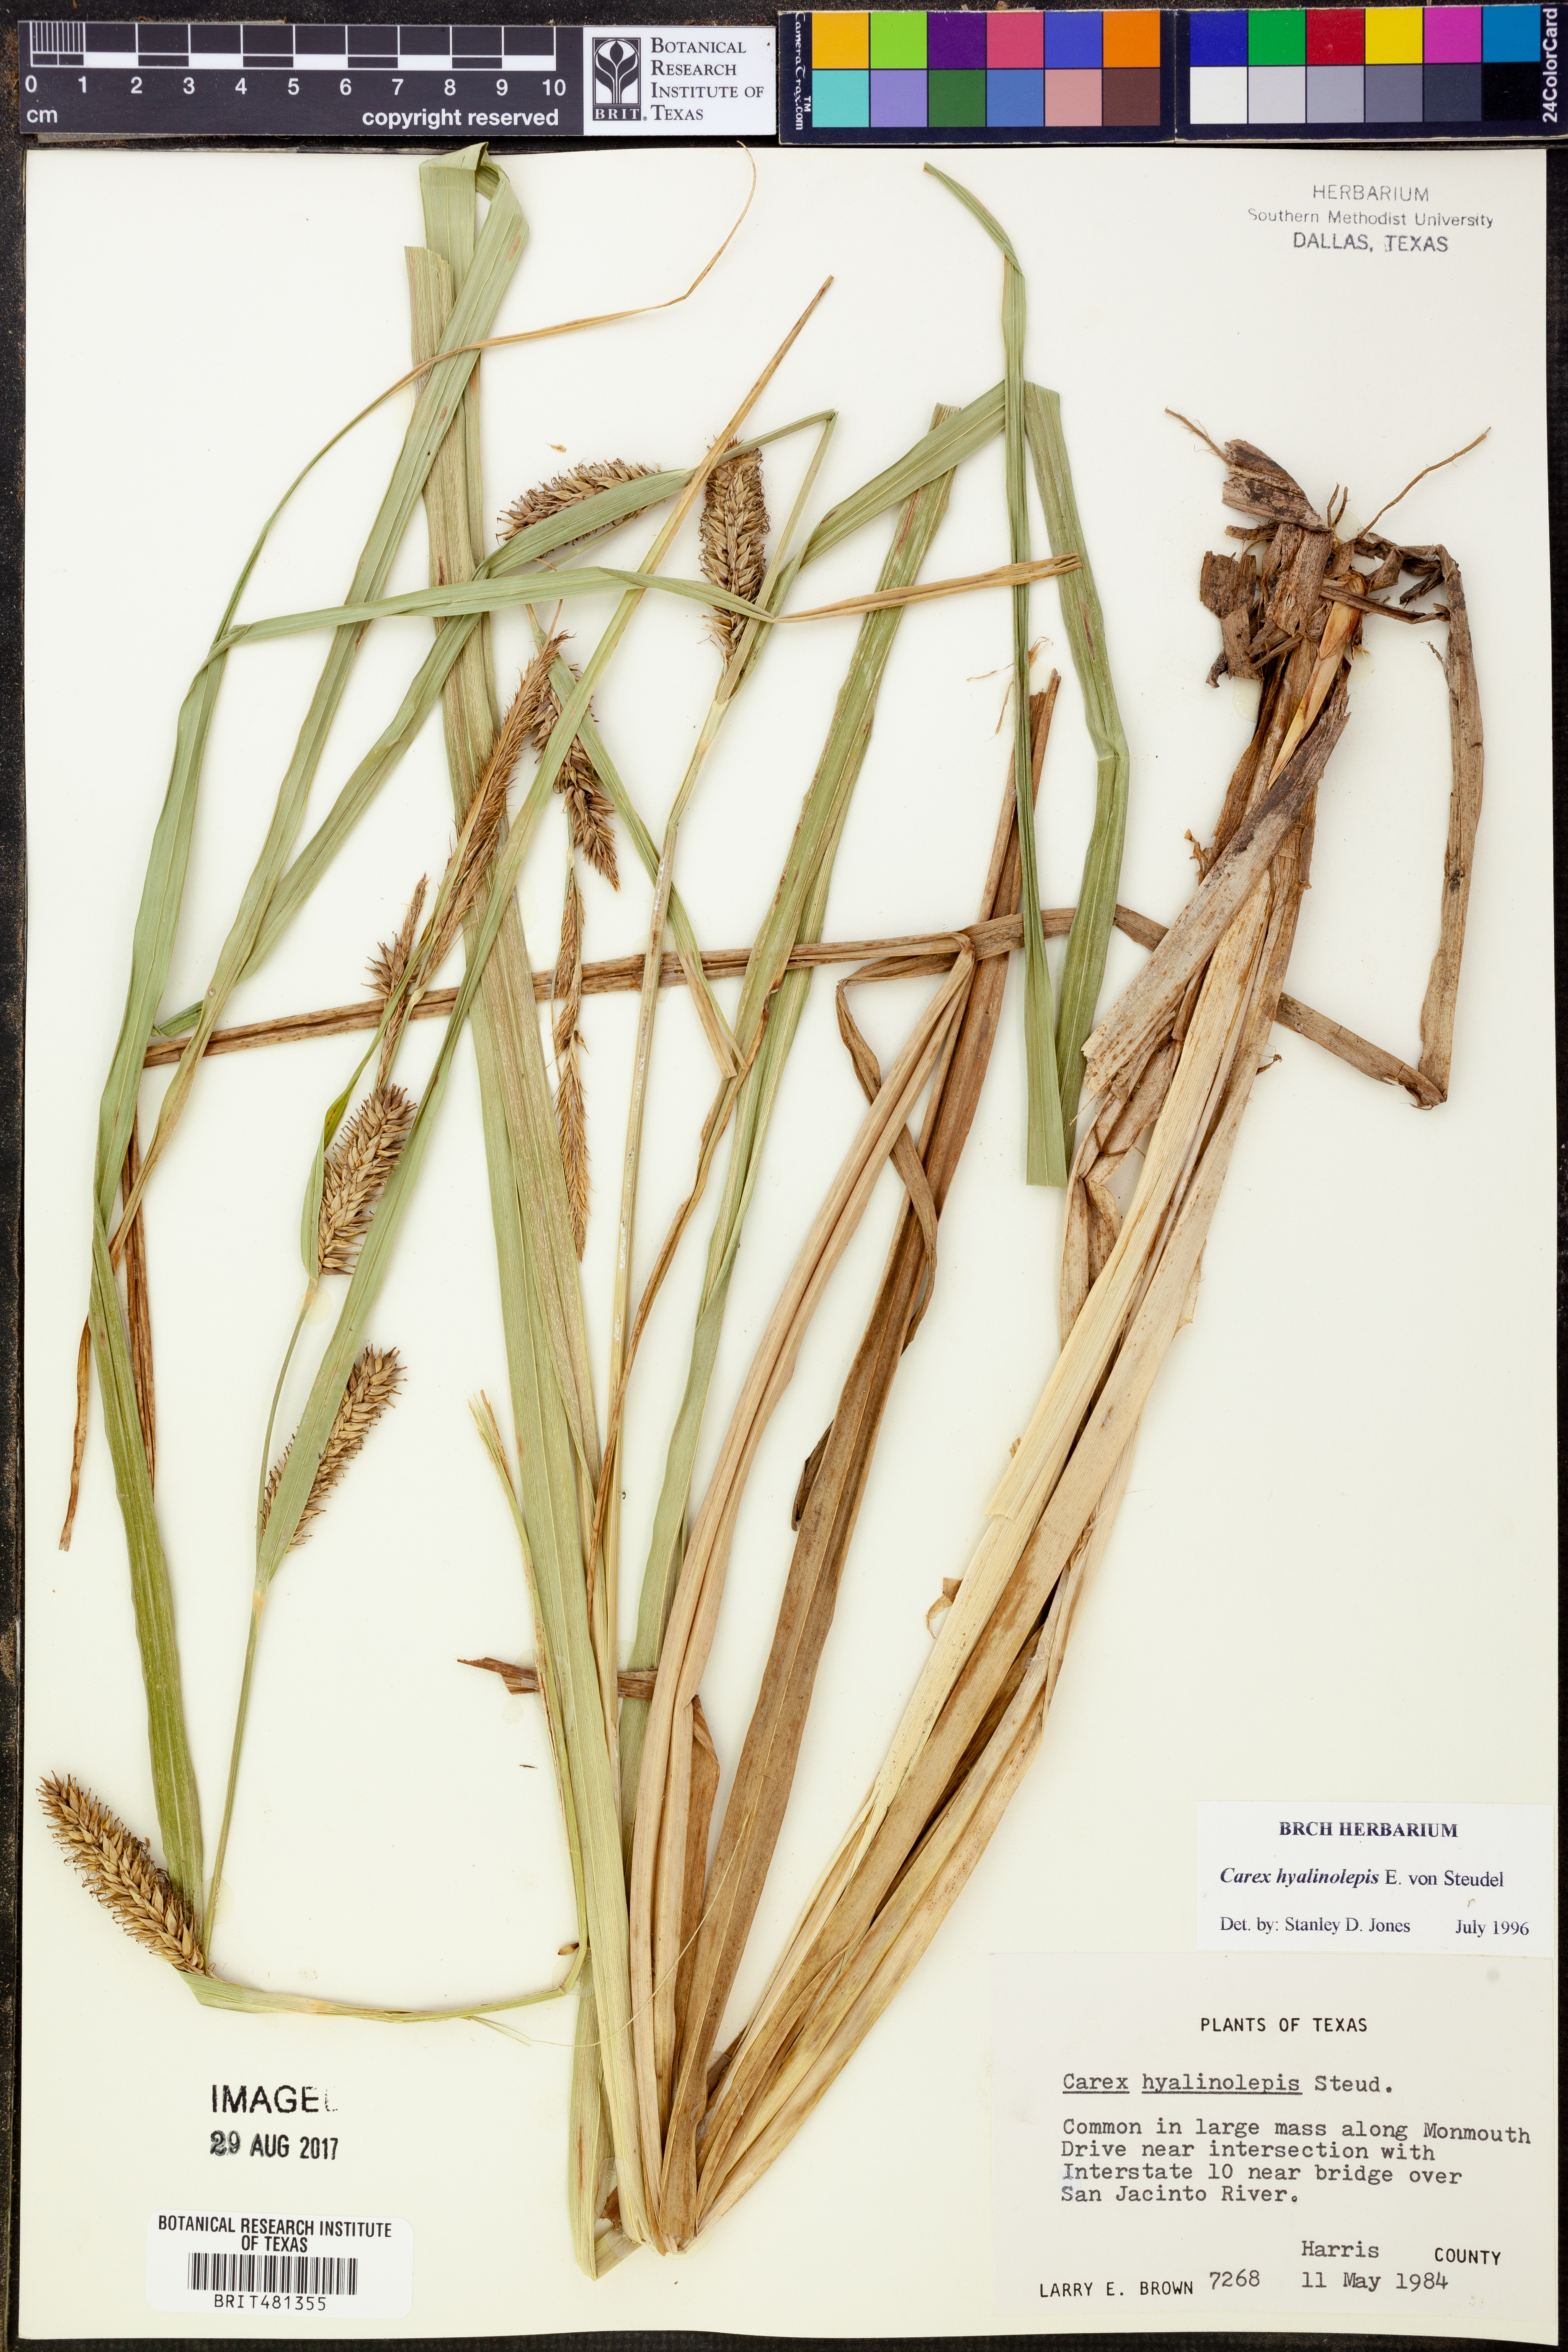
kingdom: Plantae
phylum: Tracheophyta
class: Liliopsida
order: Poales
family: Cyperaceae
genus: Carex
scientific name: Carex hyalinolepis
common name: Shoreline sedge
